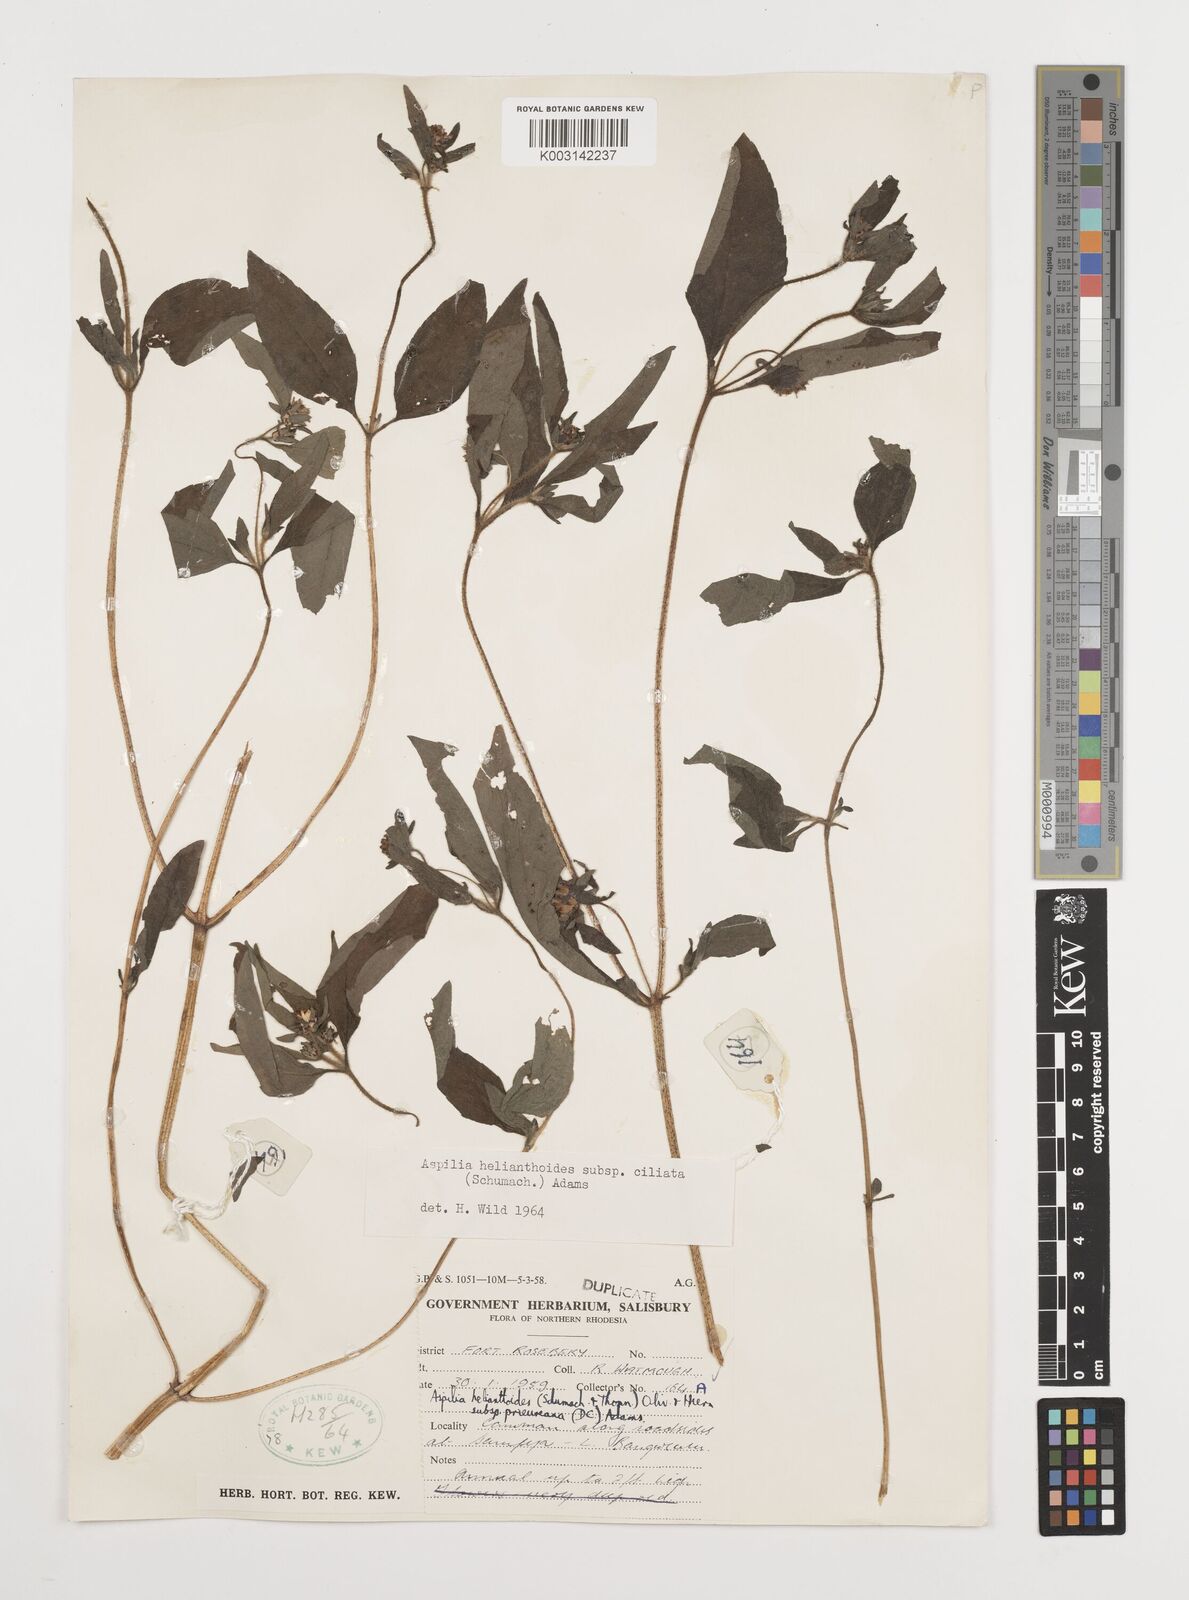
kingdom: Plantae
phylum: Tracheophyta
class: Magnoliopsida
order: Asterales
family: Asteraceae
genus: Aspilia
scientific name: Aspilia ciliata
